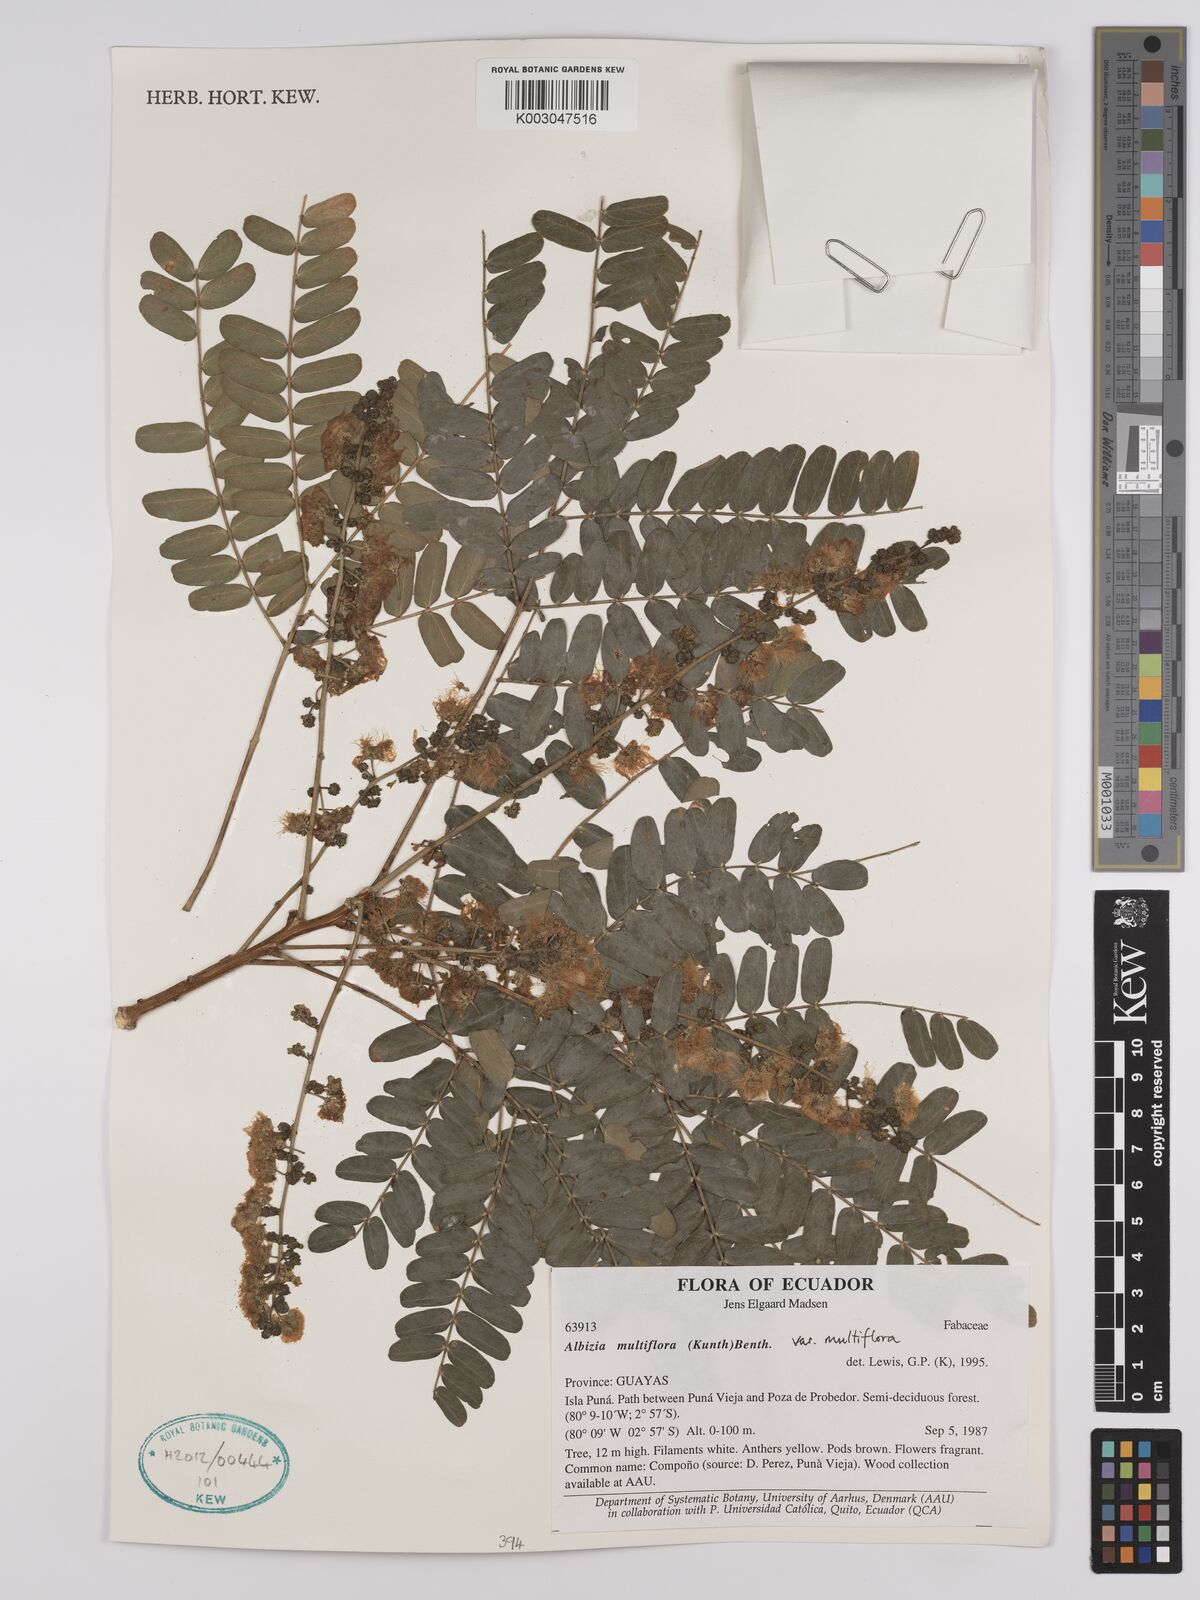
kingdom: Plantae
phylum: Tracheophyta
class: Magnoliopsida
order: Fabales
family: Fabaceae
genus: Albizia
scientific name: Albizia multiflora
